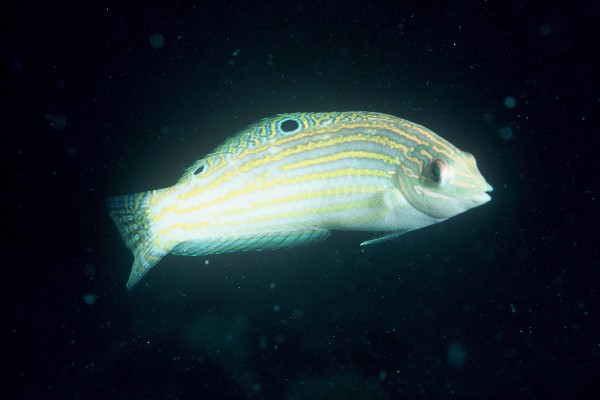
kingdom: Animalia
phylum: Chordata
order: Perciformes
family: Labridae
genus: Halichoeres
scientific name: Halichoeres cosmetus
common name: Adorned wrasse
